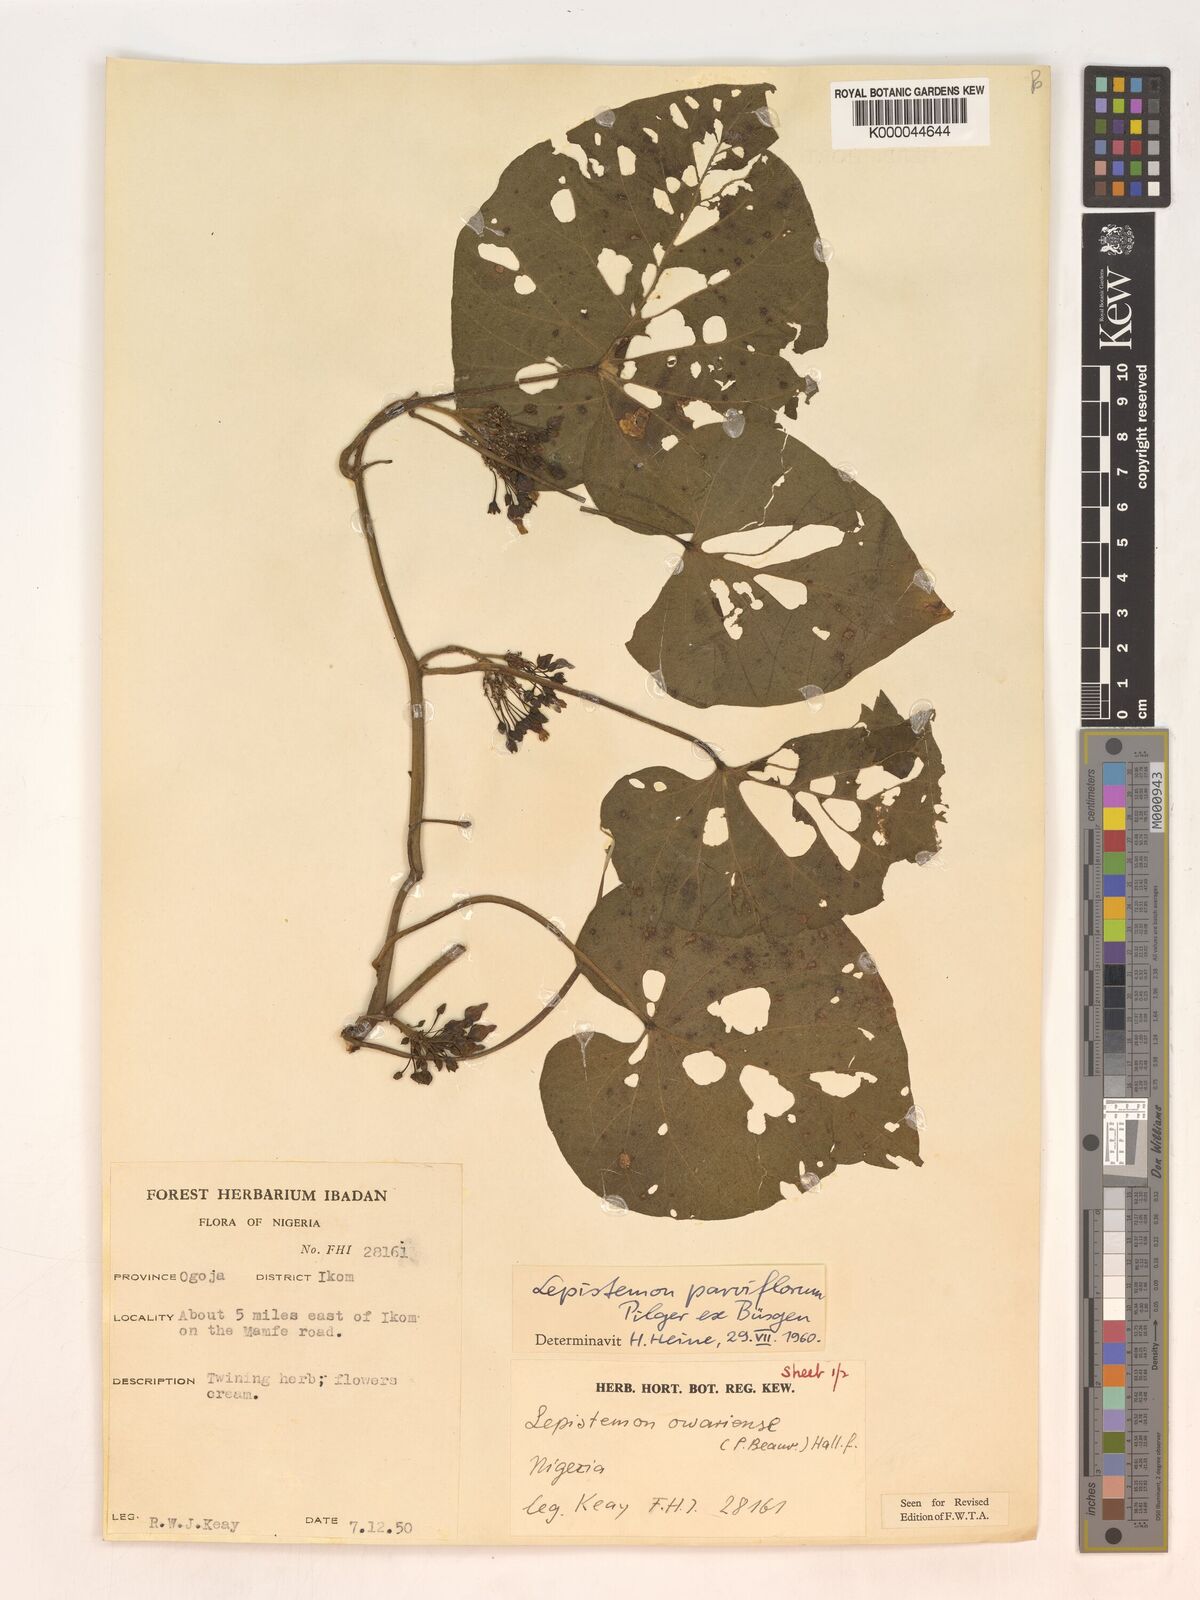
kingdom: Plantae
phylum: Tracheophyta
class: Magnoliopsida
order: Solanales
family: Convolvulaceae
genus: Lepistemon
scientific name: Lepistemon
